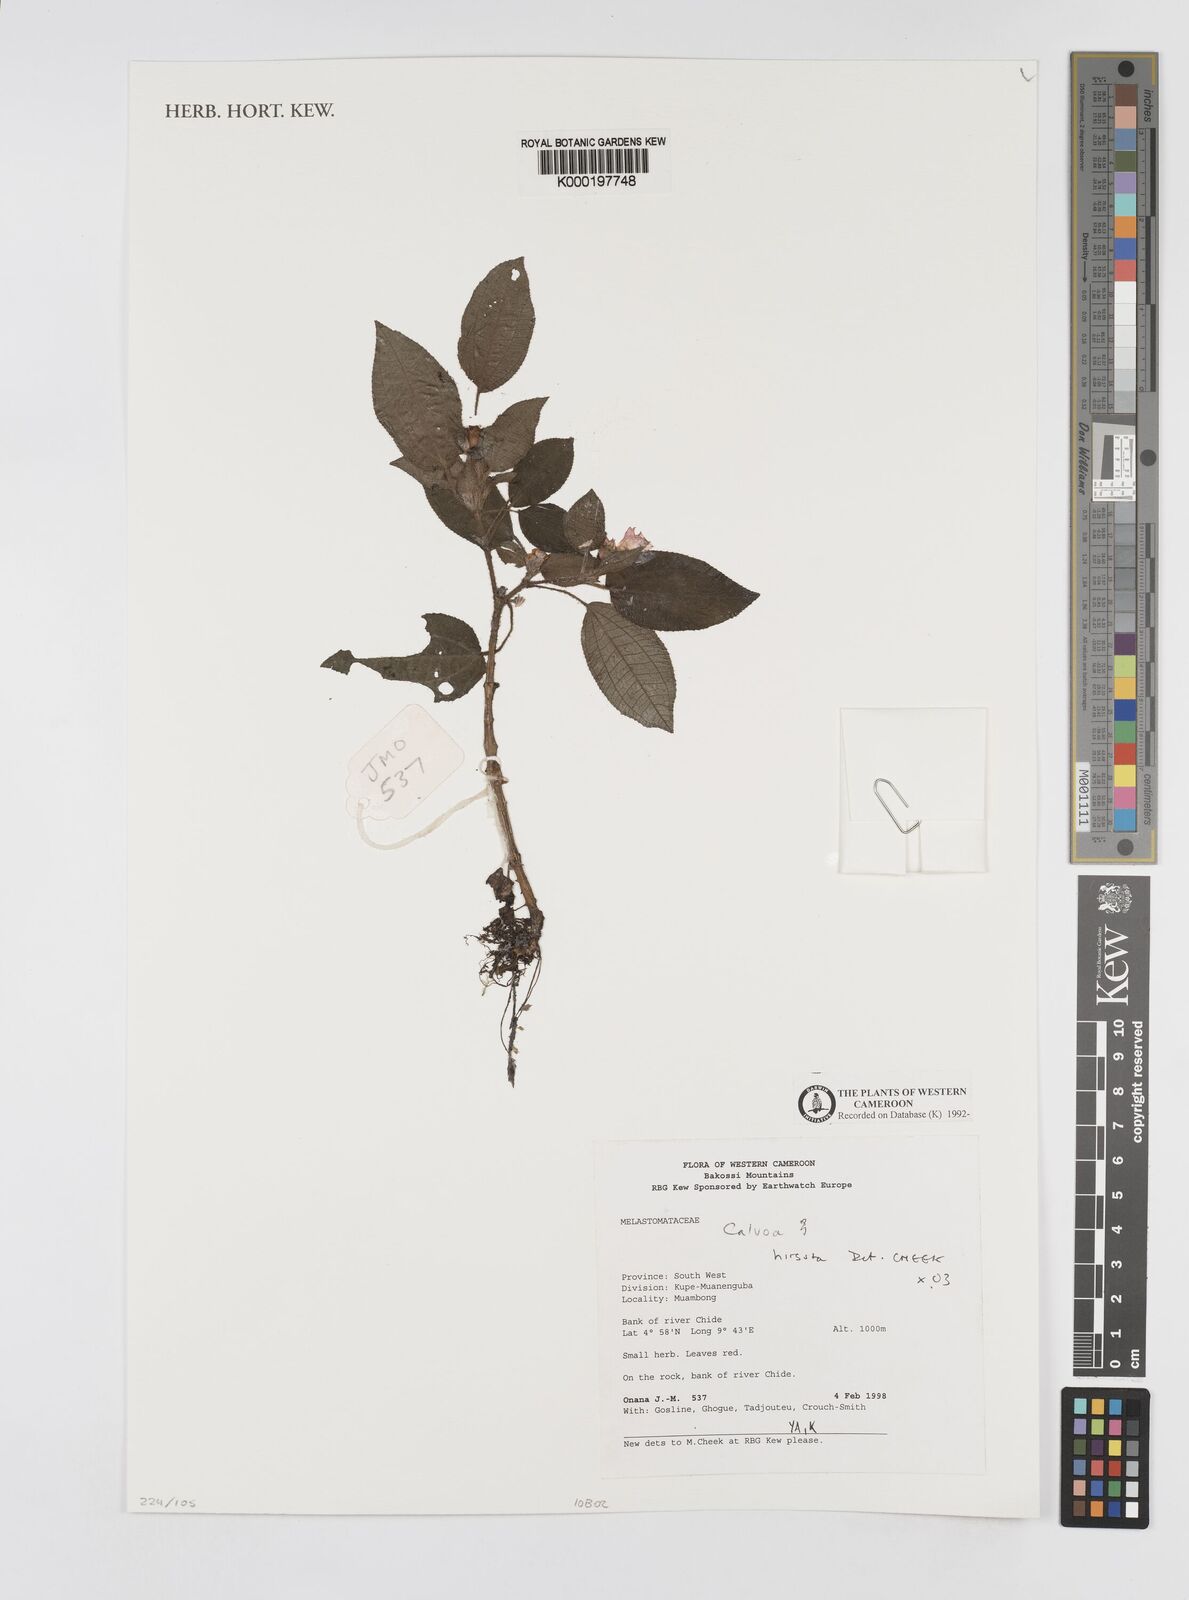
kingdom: Plantae
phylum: Tracheophyta
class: Magnoliopsida
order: Myrtales
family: Melastomataceae
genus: Calvoa
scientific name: Calvoa
